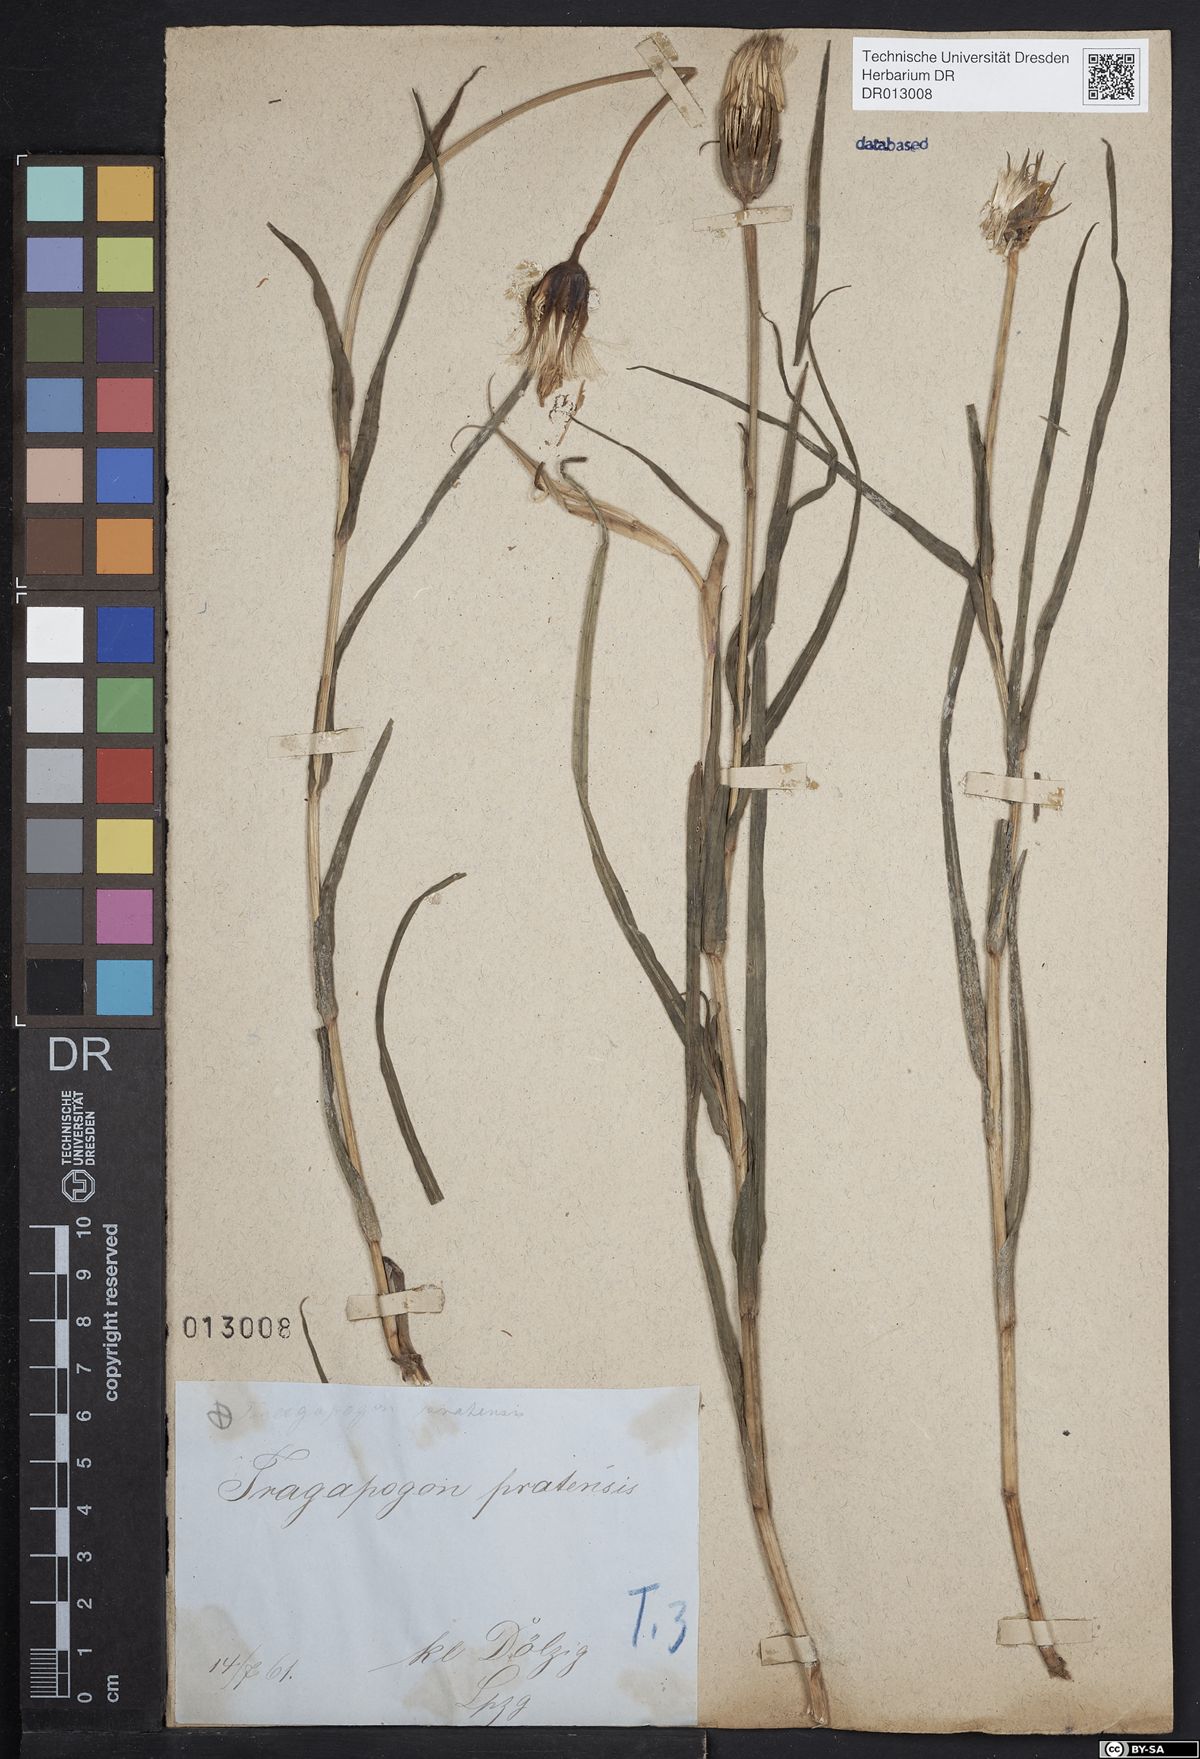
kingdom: Plantae
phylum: Tracheophyta
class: Magnoliopsida
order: Asterales
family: Asteraceae
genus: Tragopogon
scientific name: Tragopogon pratensis
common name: Goat's-beard
